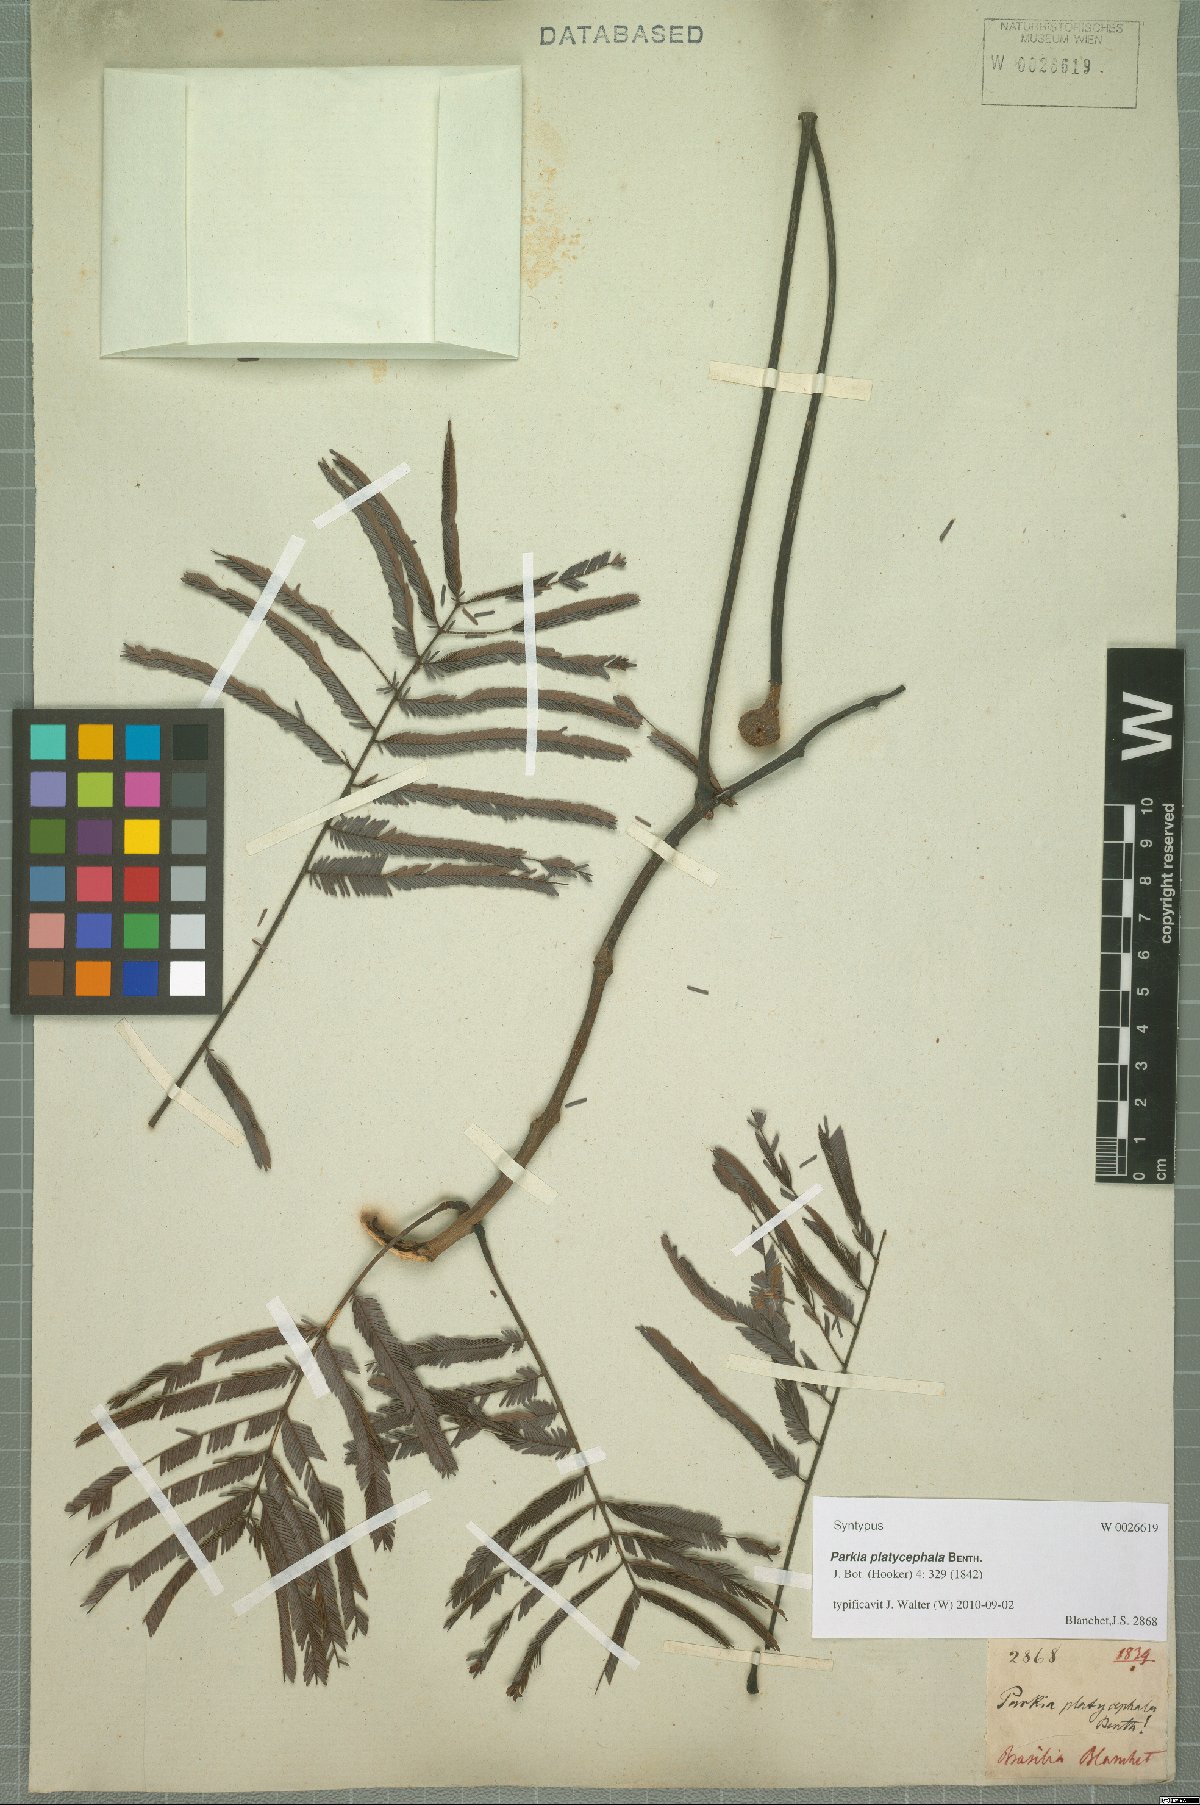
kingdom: Plantae
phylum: Tracheophyta
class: Magnoliopsida
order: Fabales
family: Fabaceae
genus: Parkia
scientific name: Parkia platycephala
